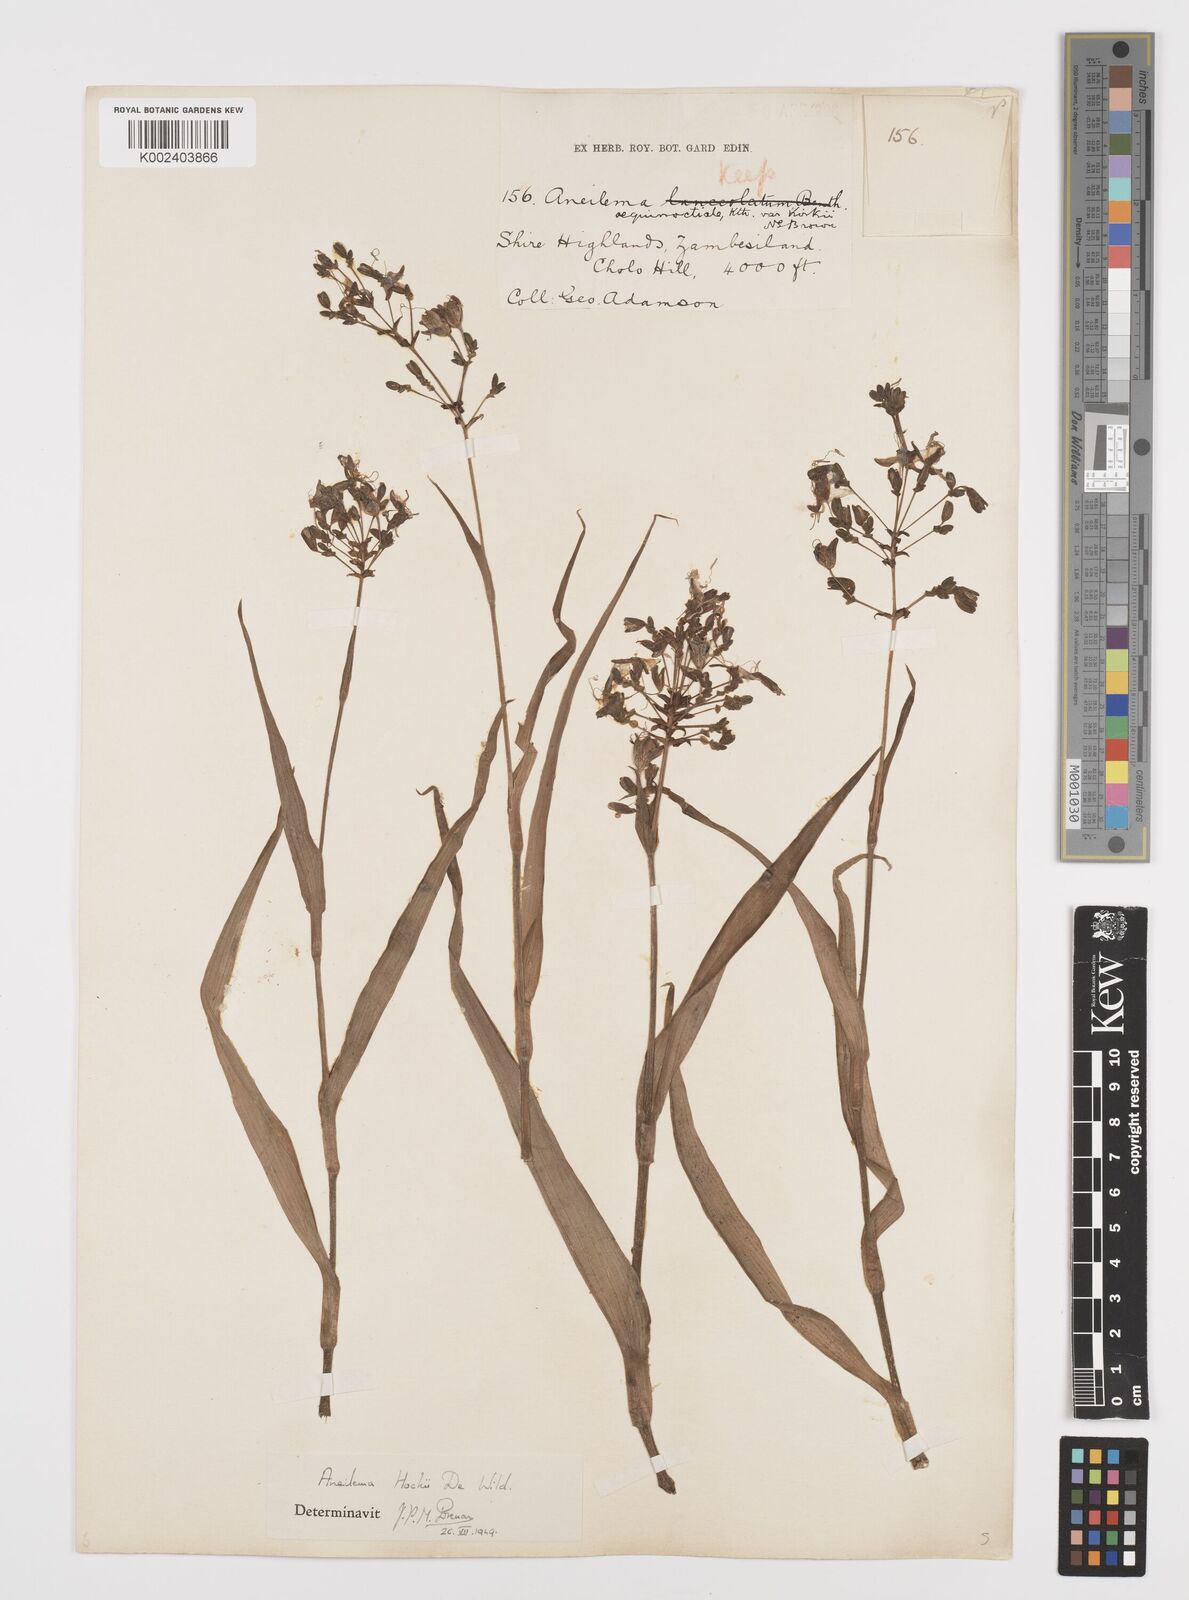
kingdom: Plantae
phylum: Tracheophyta
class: Liliopsida
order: Commelinales
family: Commelinaceae
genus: Aneilema
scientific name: Aneilema hockii
